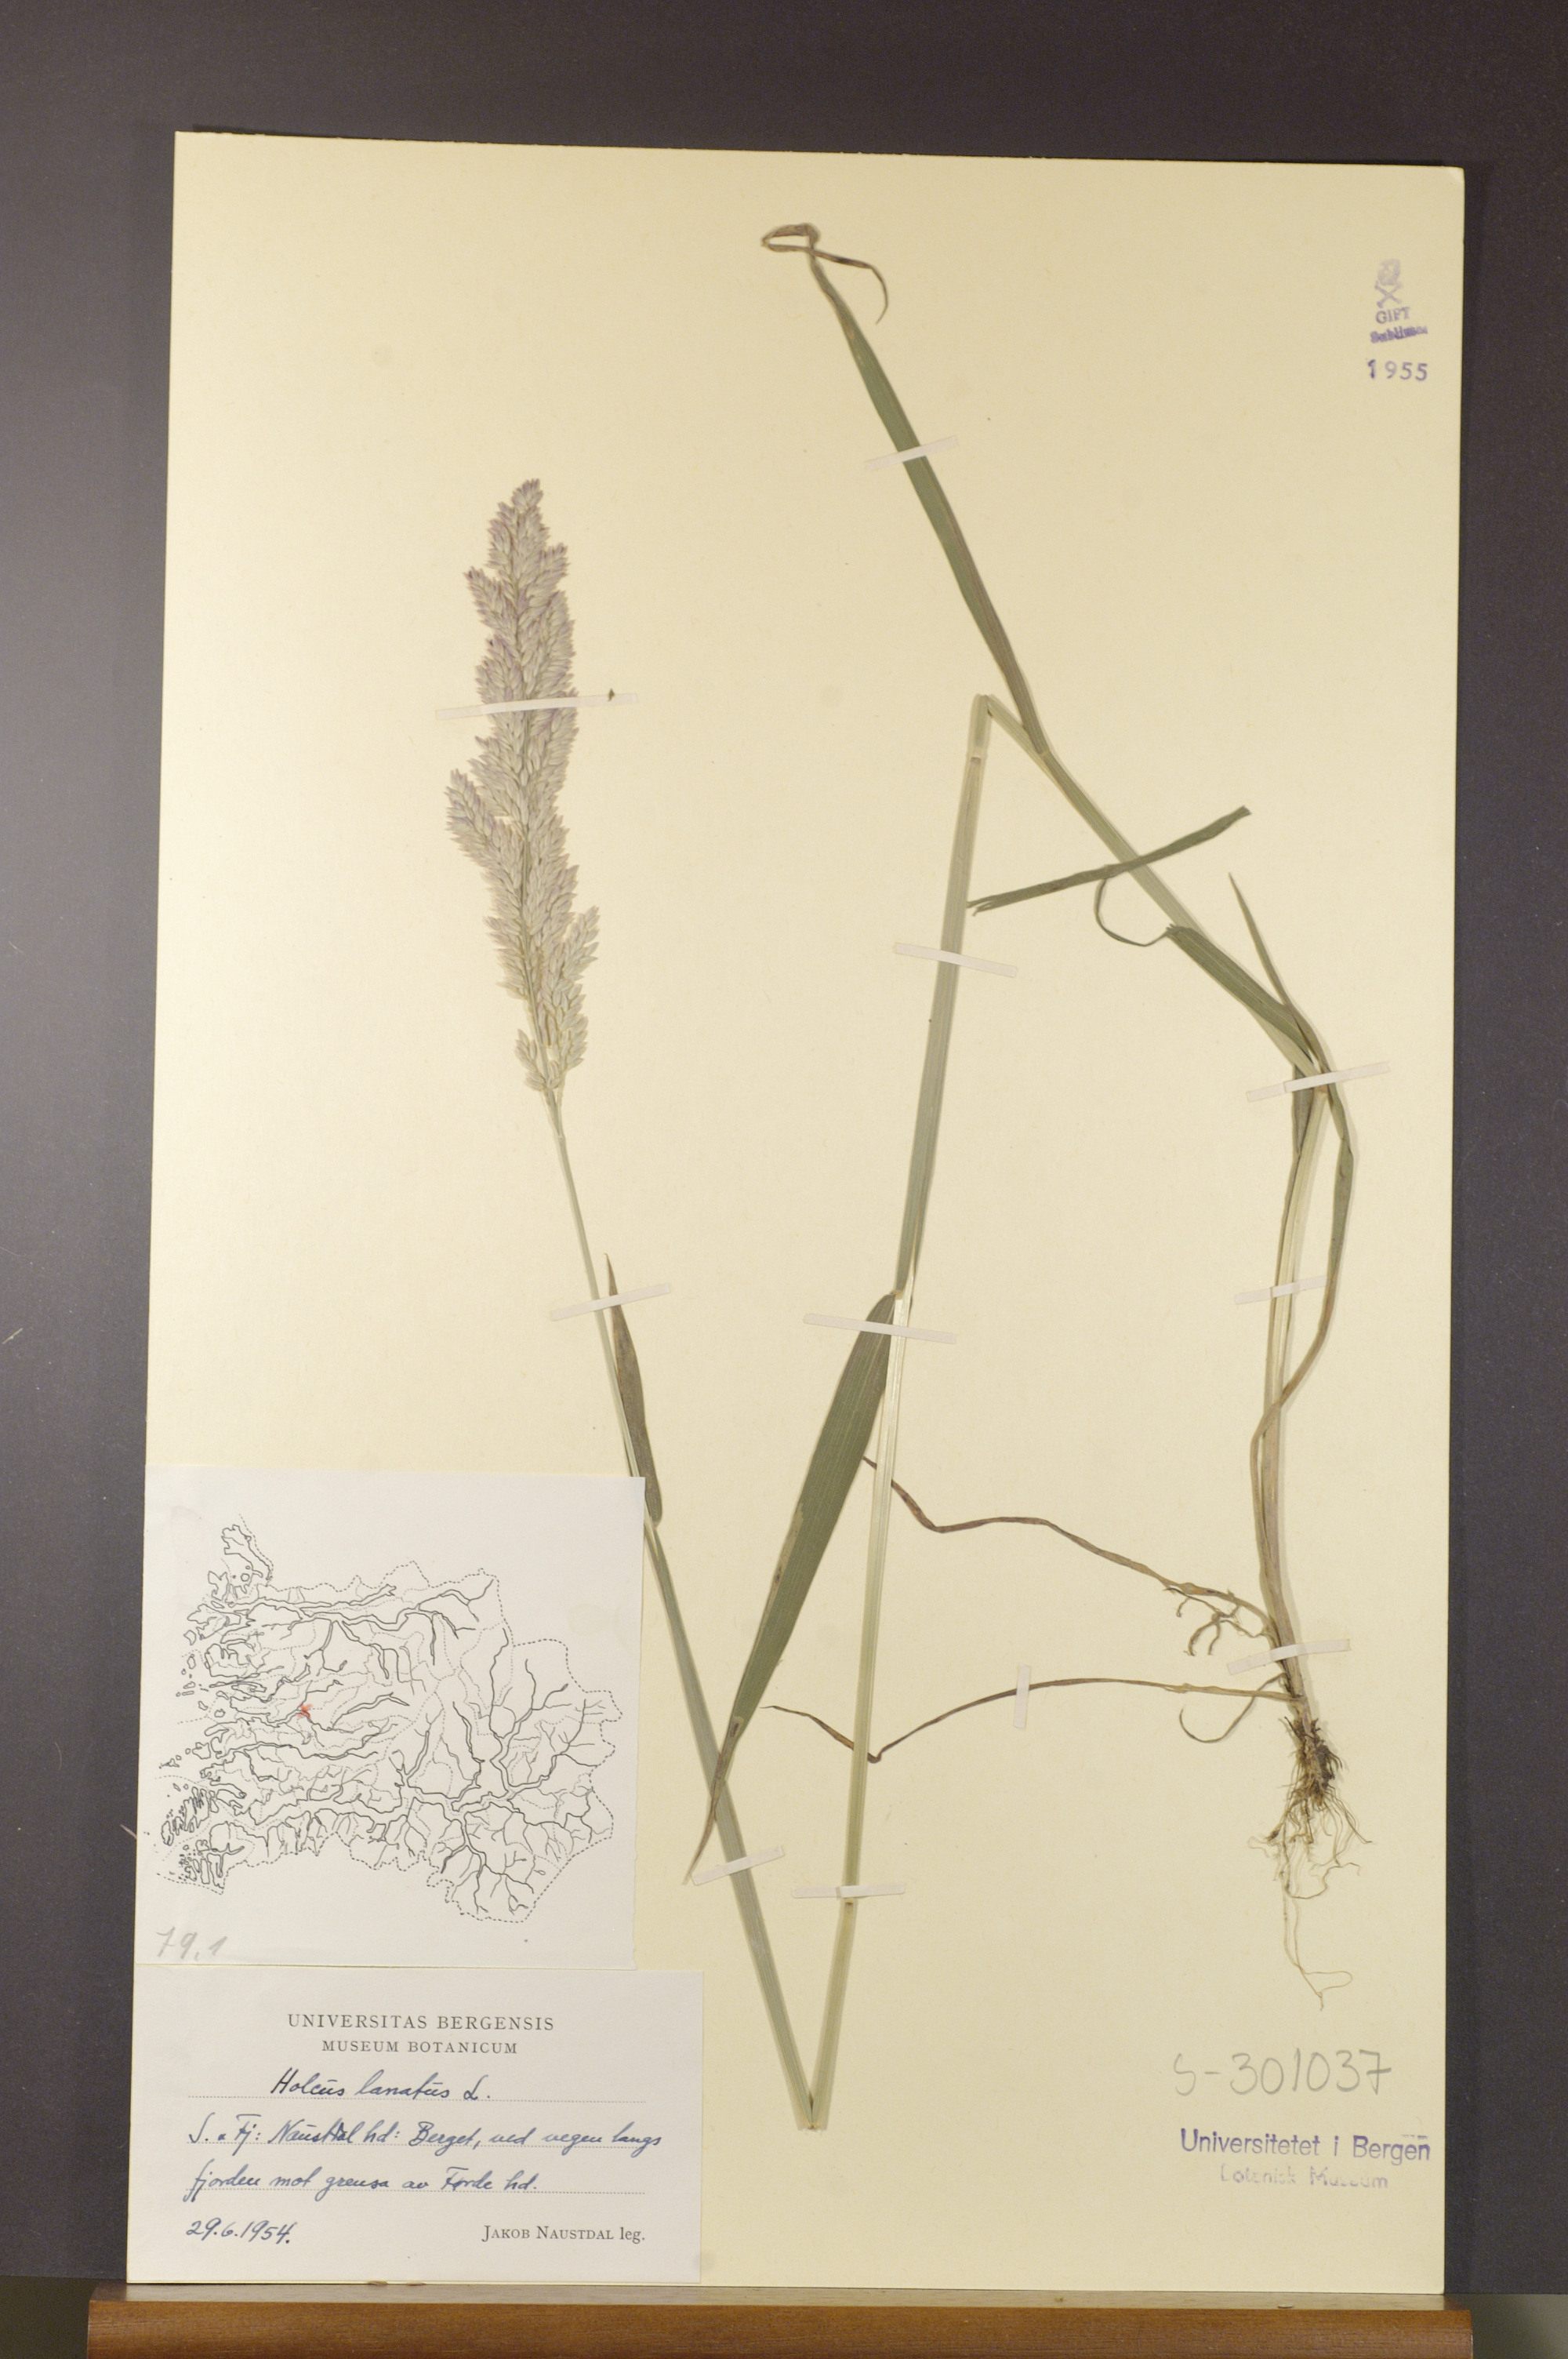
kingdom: Plantae
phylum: Tracheophyta
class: Liliopsida
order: Poales
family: Poaceae
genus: Holcus
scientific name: Holcus lanatus
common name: Yorkshire-fog
